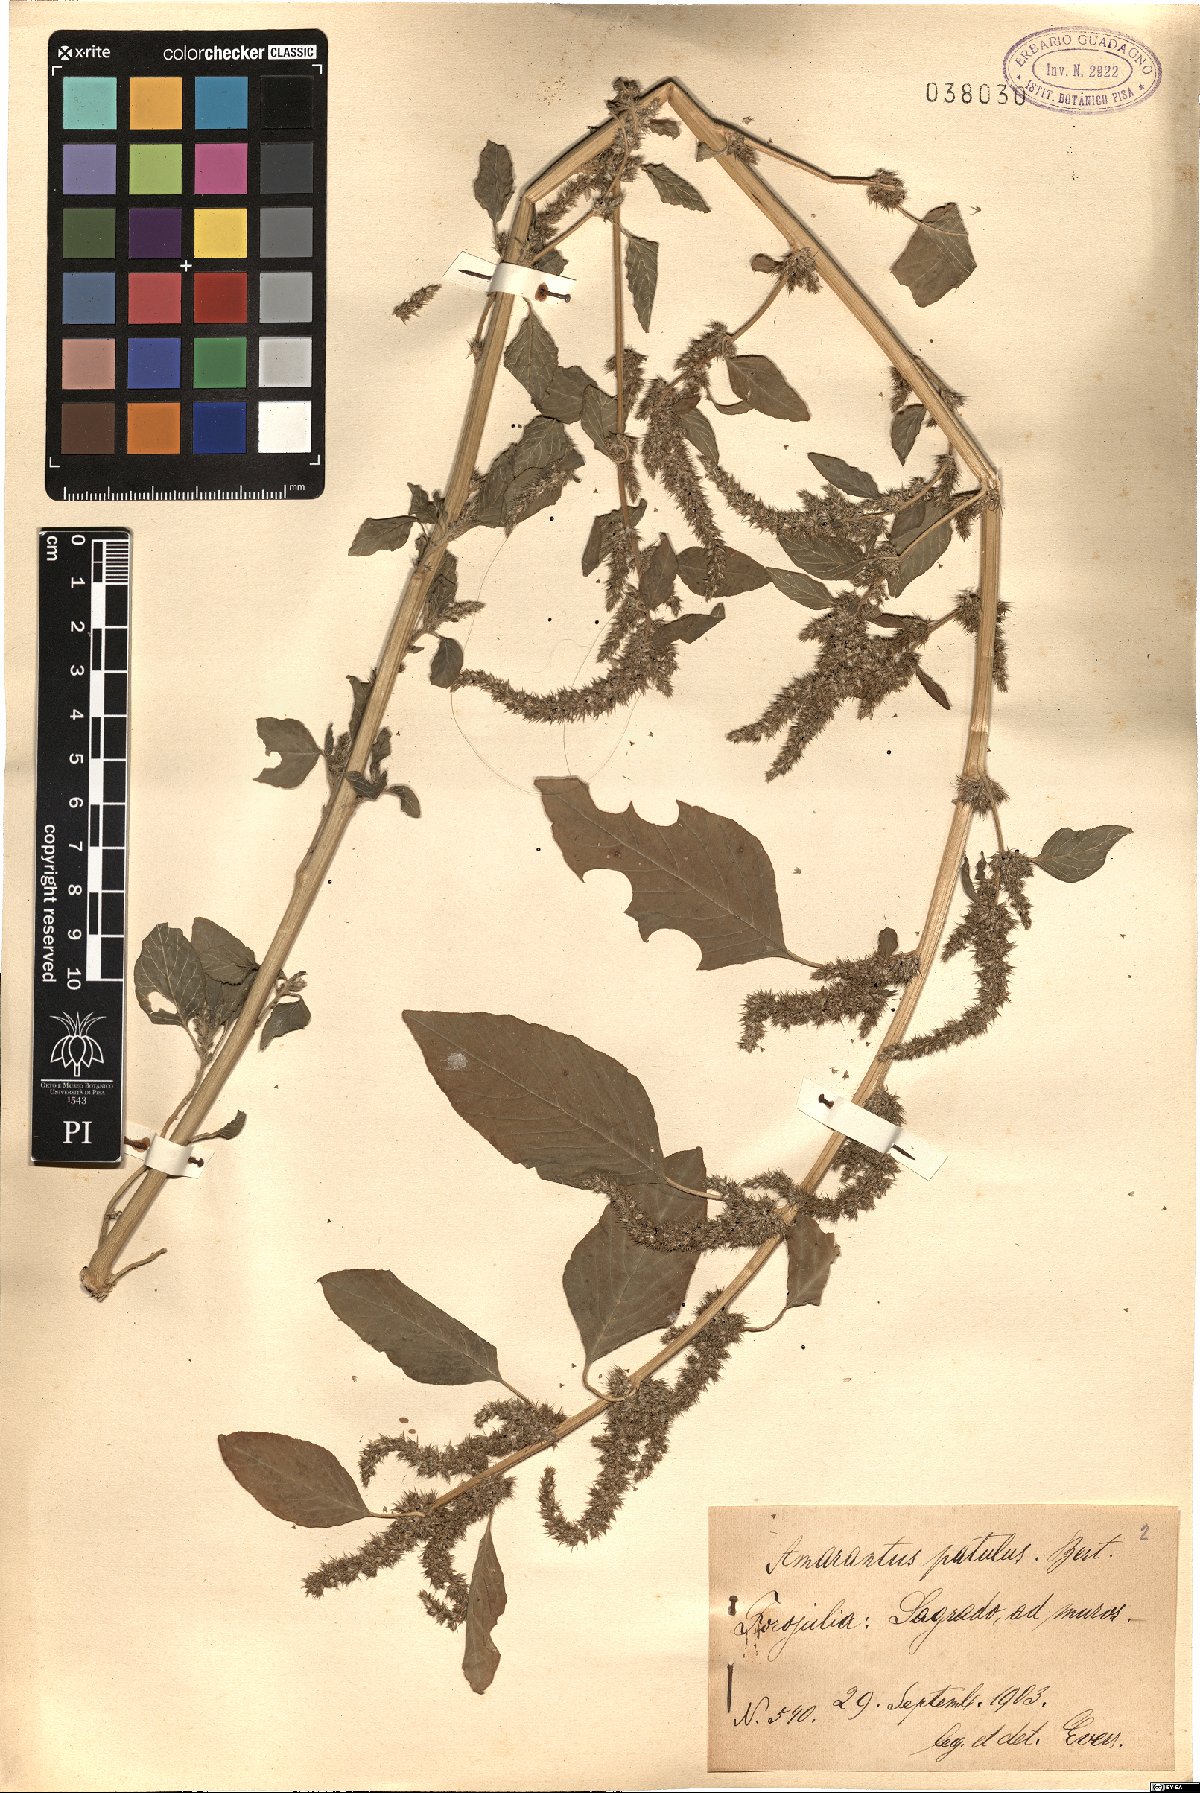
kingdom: Plantae
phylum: Tracheophyta
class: Magnoliopsida
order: Caryophyllales
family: Amaranthaceae
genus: Amaranthus
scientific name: Amaranthus hybridus
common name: Green amaranth
